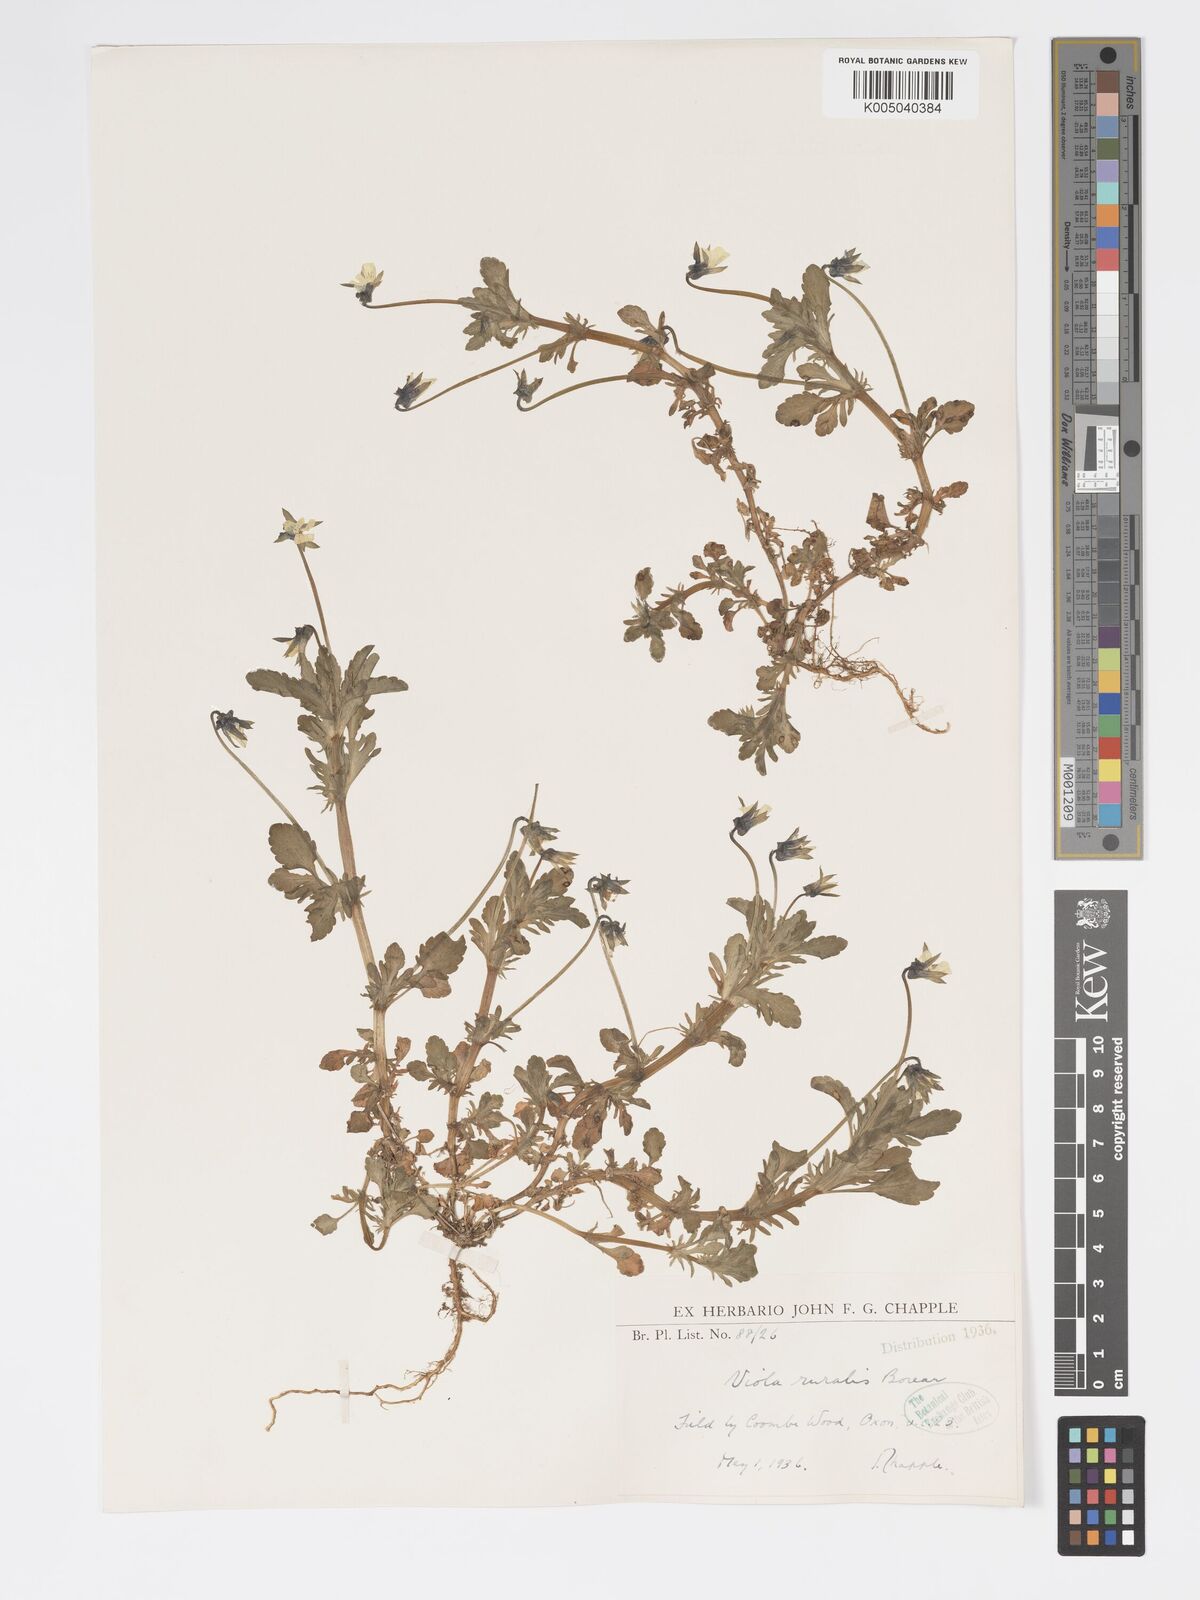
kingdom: Plantae
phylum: Tracheophyta
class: Magnoliopsida
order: Malpighiales
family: Violaceae
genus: Viola
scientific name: Viola arvensis
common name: Field pansy
